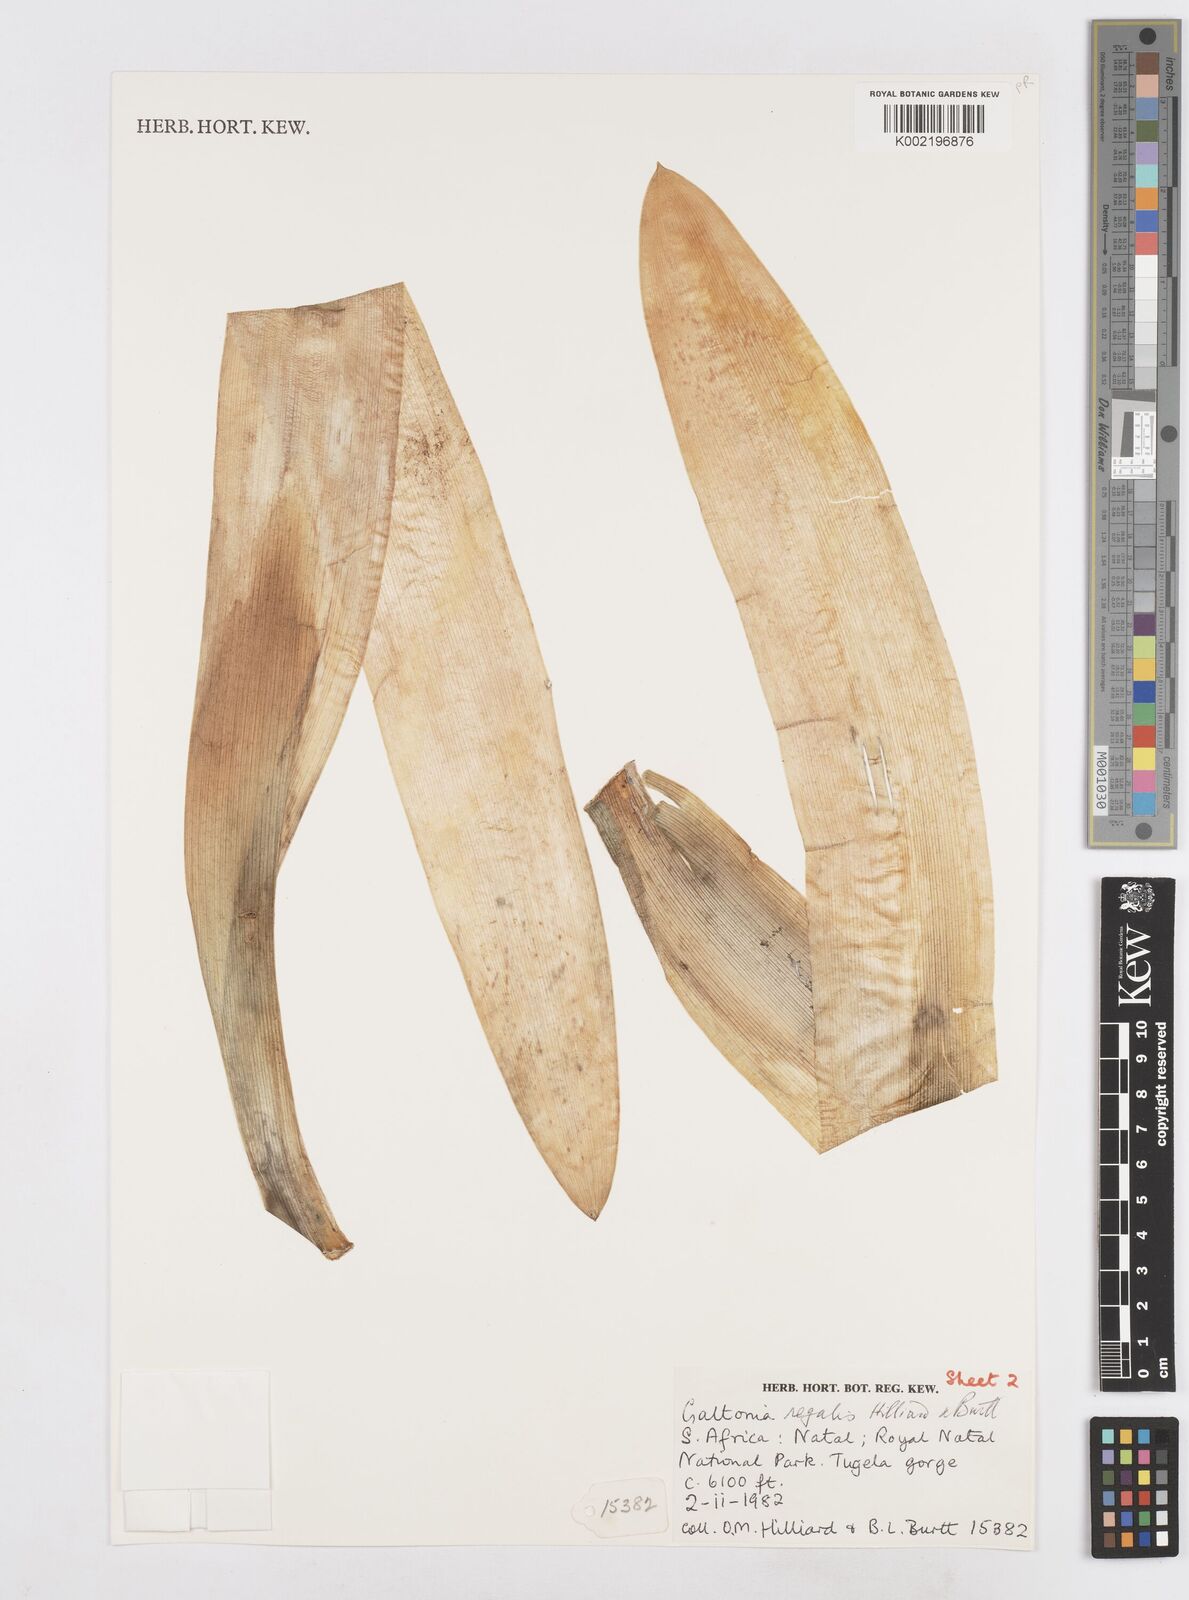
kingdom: Plantae
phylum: Tracheophyta
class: Liliopsida
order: Asparagales
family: Asparagaceae
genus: Ornithogalum
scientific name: Ornithogalum regale
